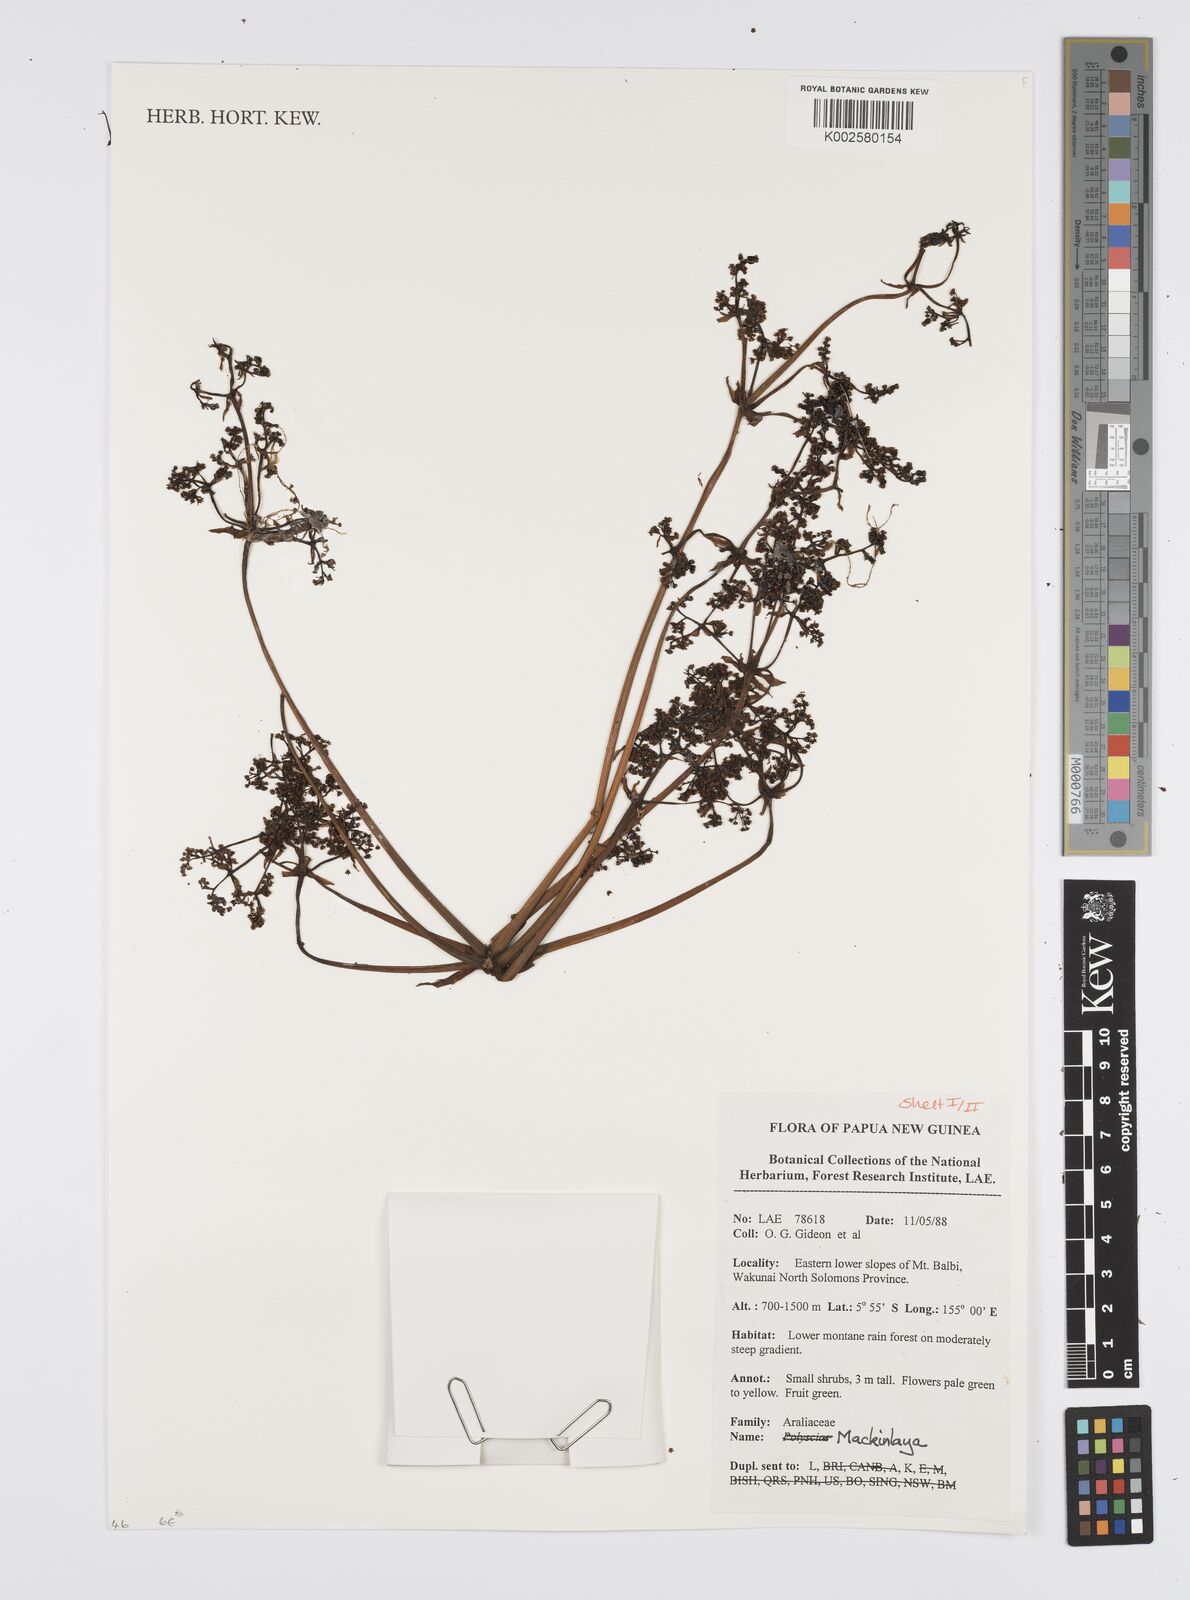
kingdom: Plantae
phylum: Tracheophyta
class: Magnoliopsida
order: Apiales
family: Apiaceae
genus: Mackinlaya
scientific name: Mackinlaya
